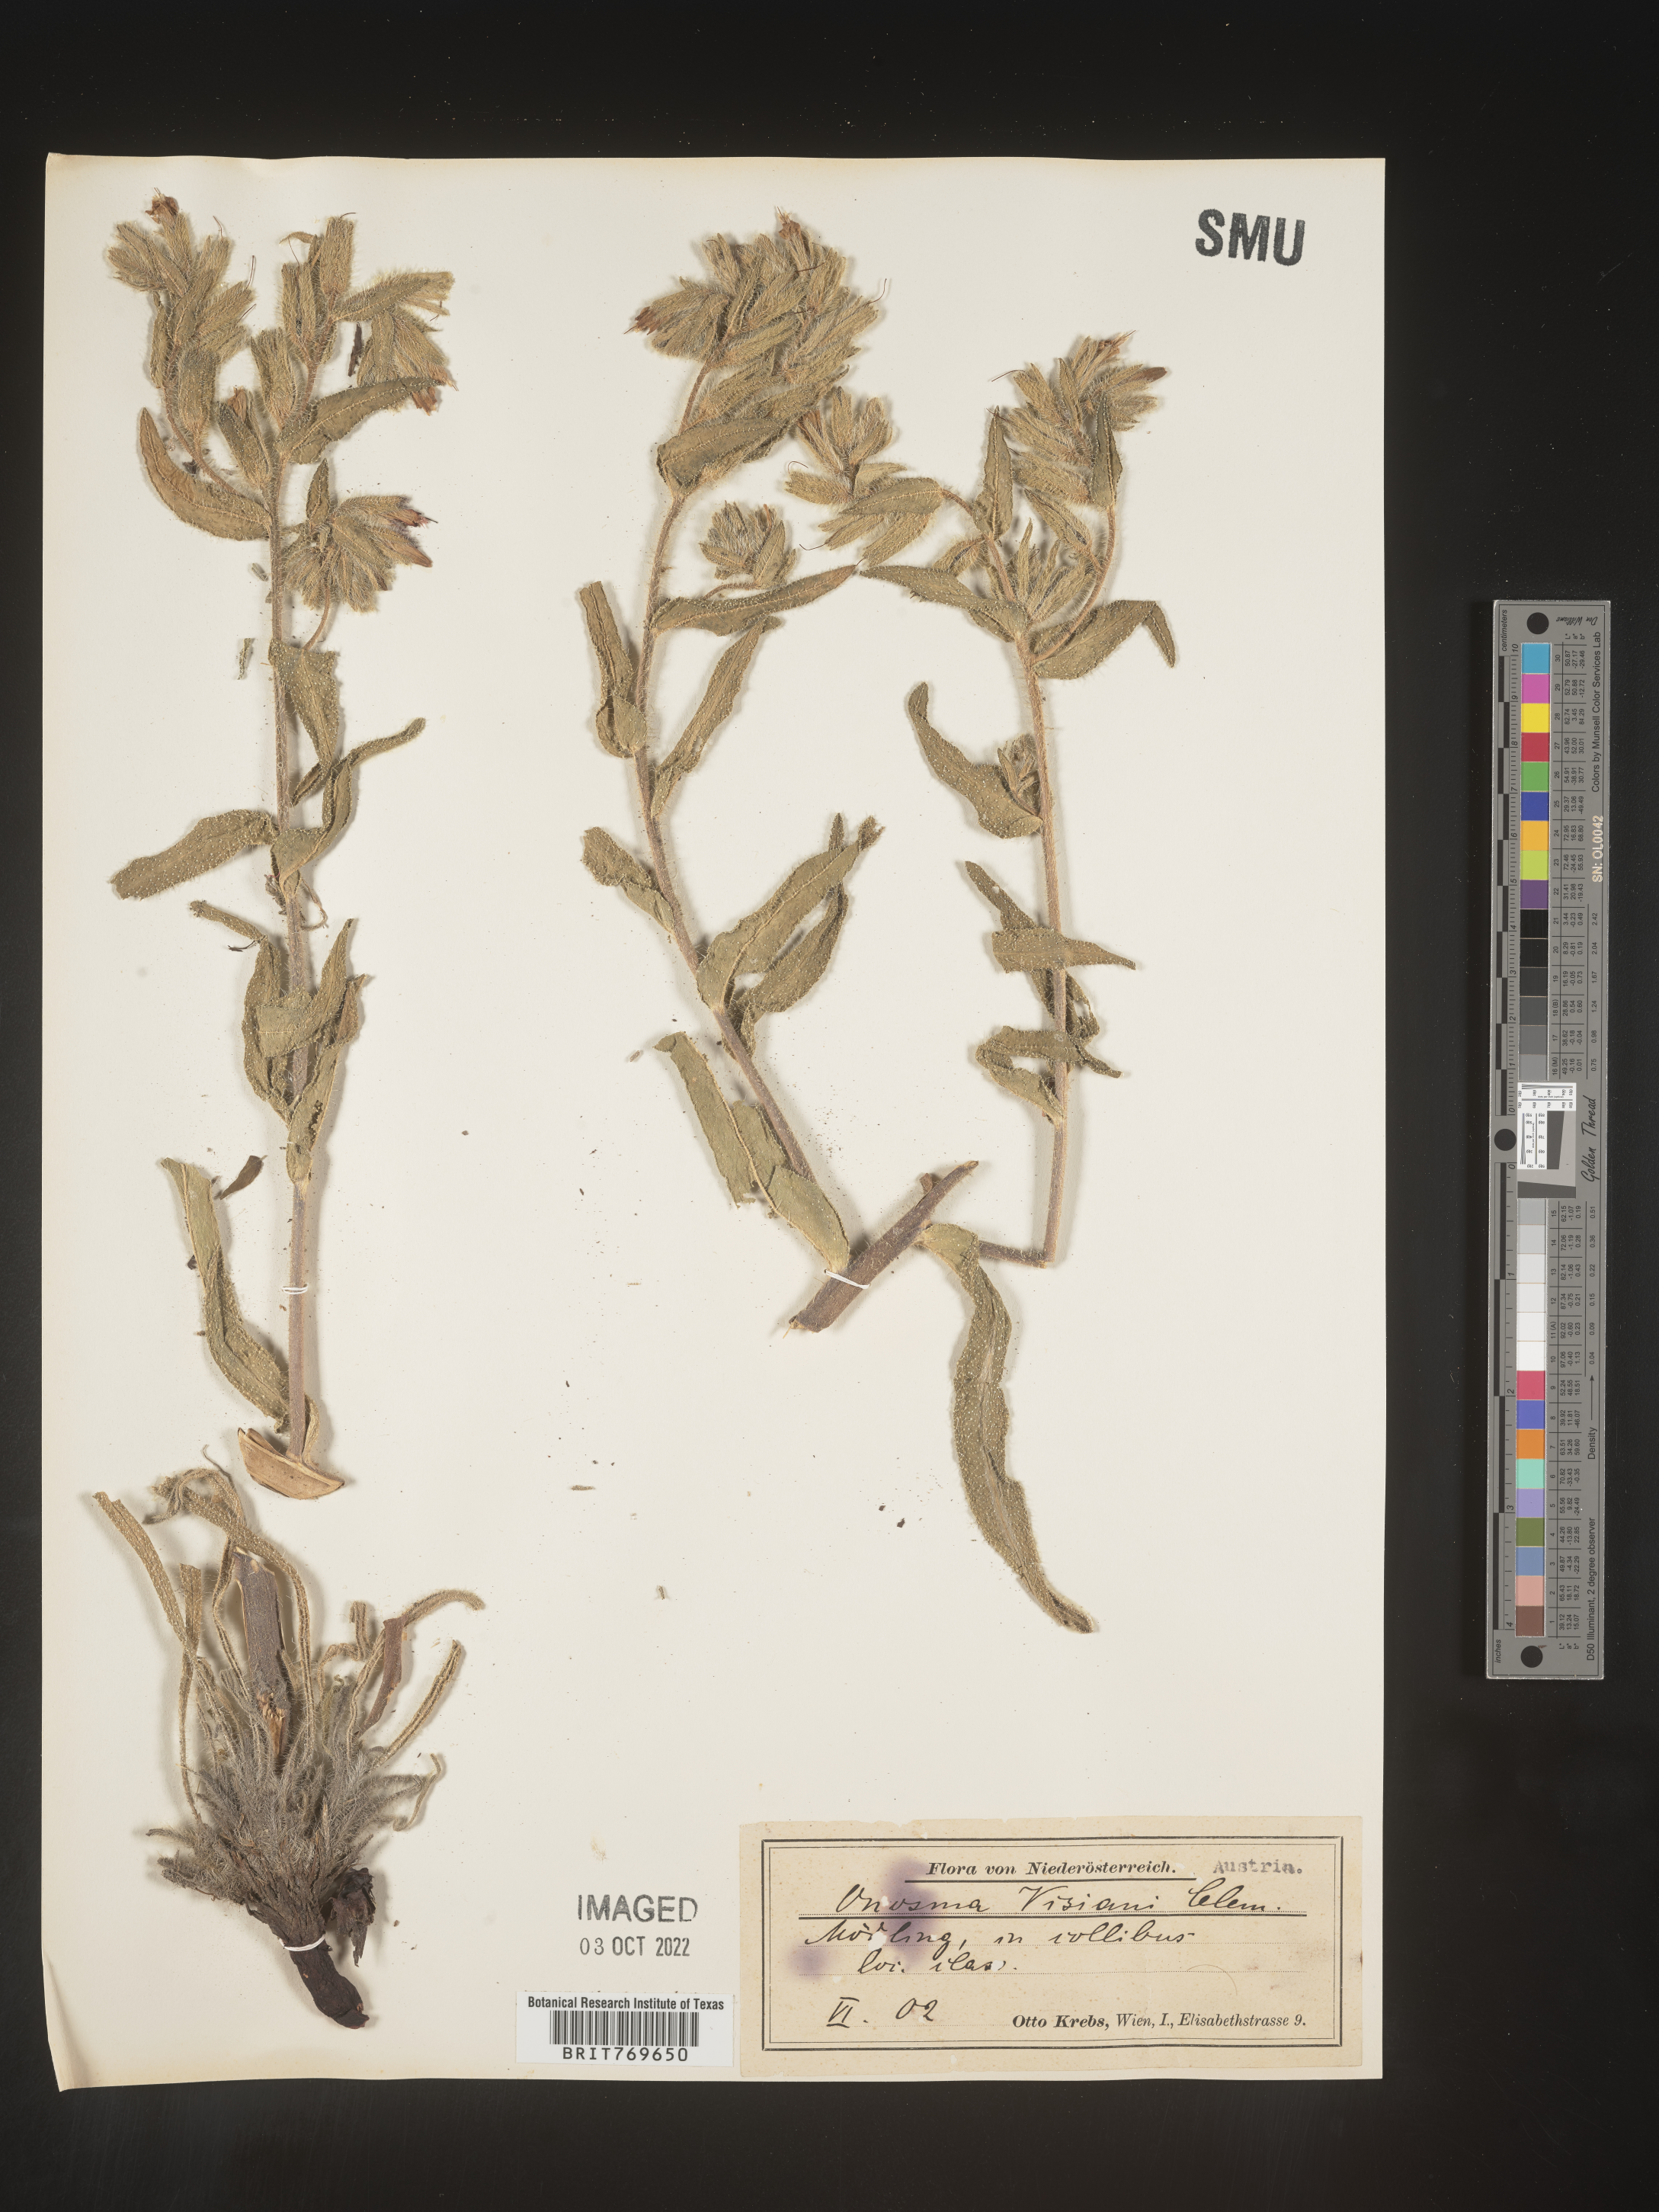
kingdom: Plantae
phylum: Tracheophyta
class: Magnoliopsida
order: Boraginales
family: Boraginaceae
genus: Onosma
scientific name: Onosma
